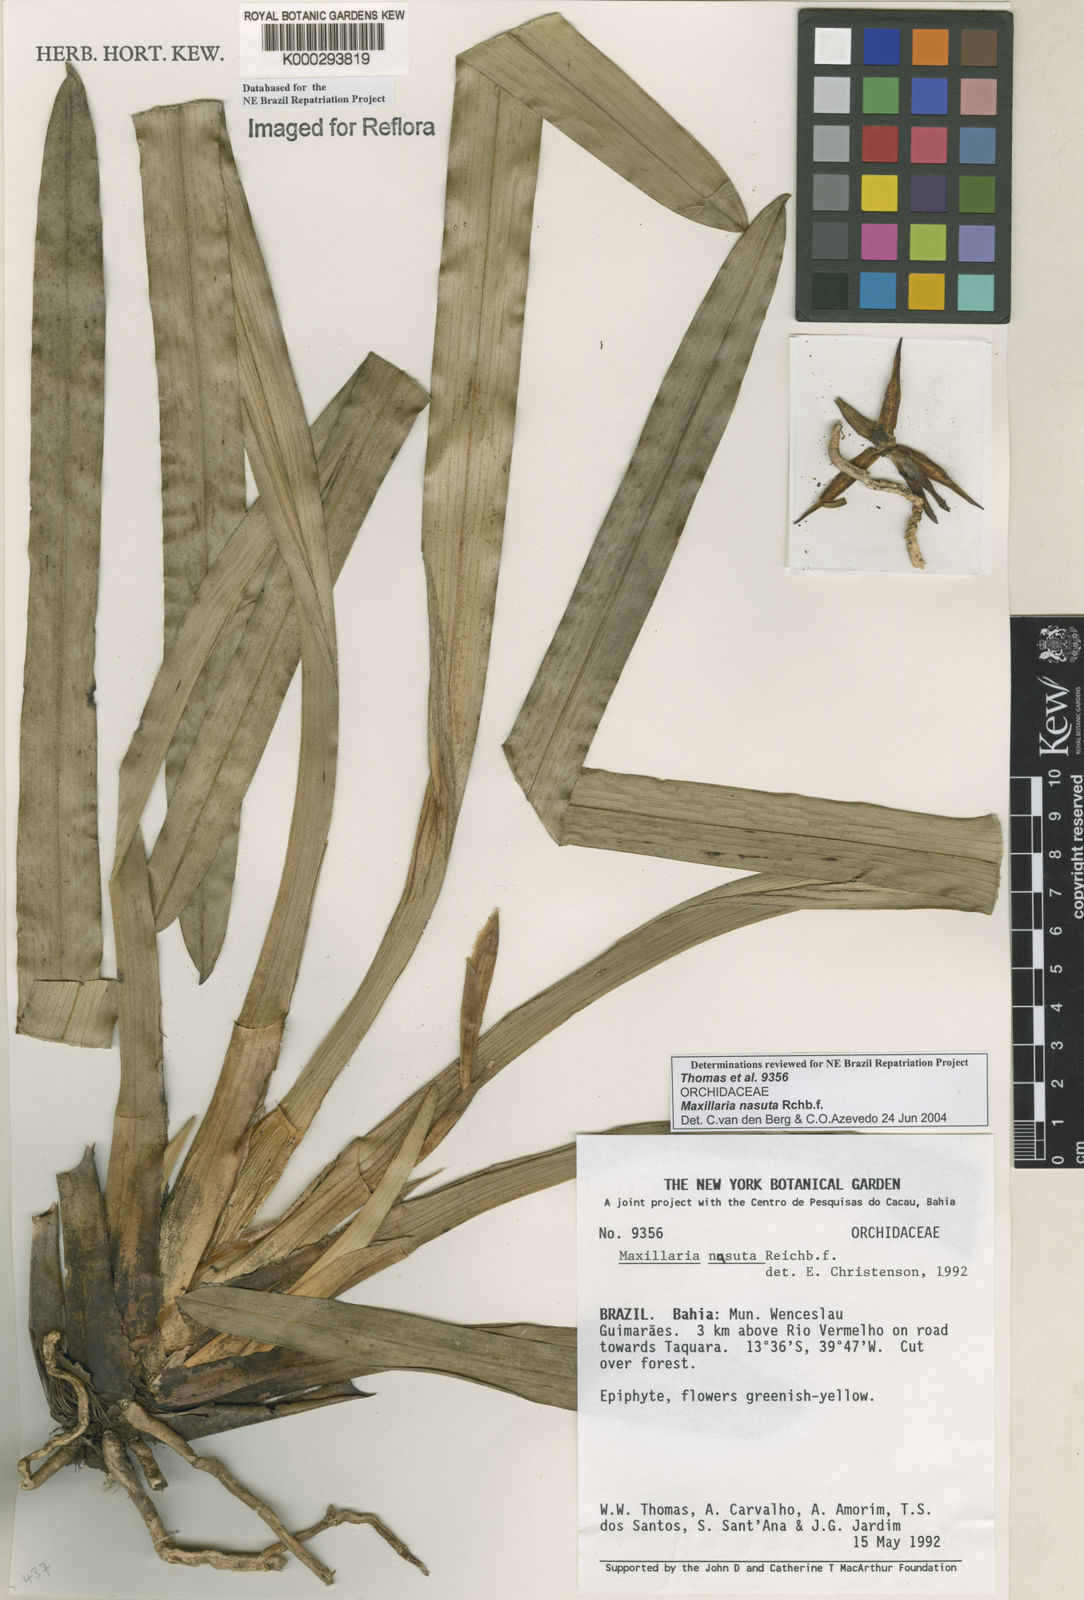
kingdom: Plantae
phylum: Tracheophyta
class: Liliopsida
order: Asparagales
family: Orchidaceae
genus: Maxillaria
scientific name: Maxillaria nasuta
